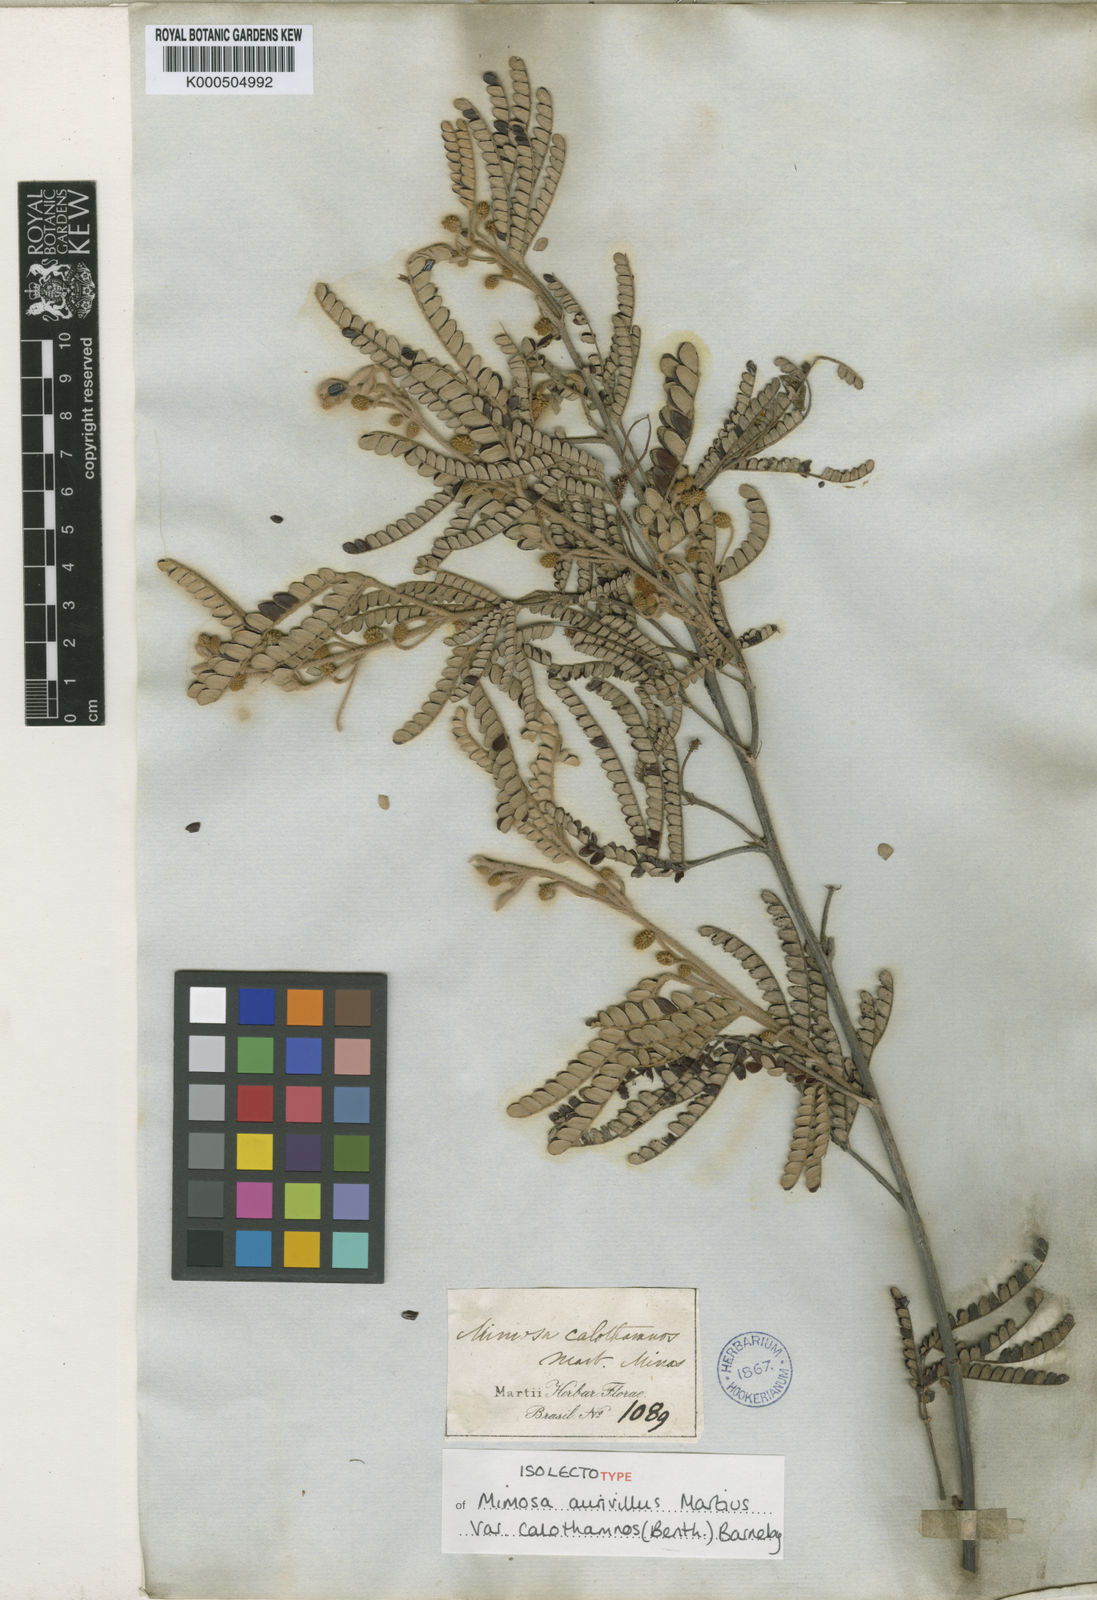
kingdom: Plantae
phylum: Tracheophyta
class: Magnoliopsida
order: Fabales
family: Fabaceae
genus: Mimosa
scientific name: Mimosa aurivillus
